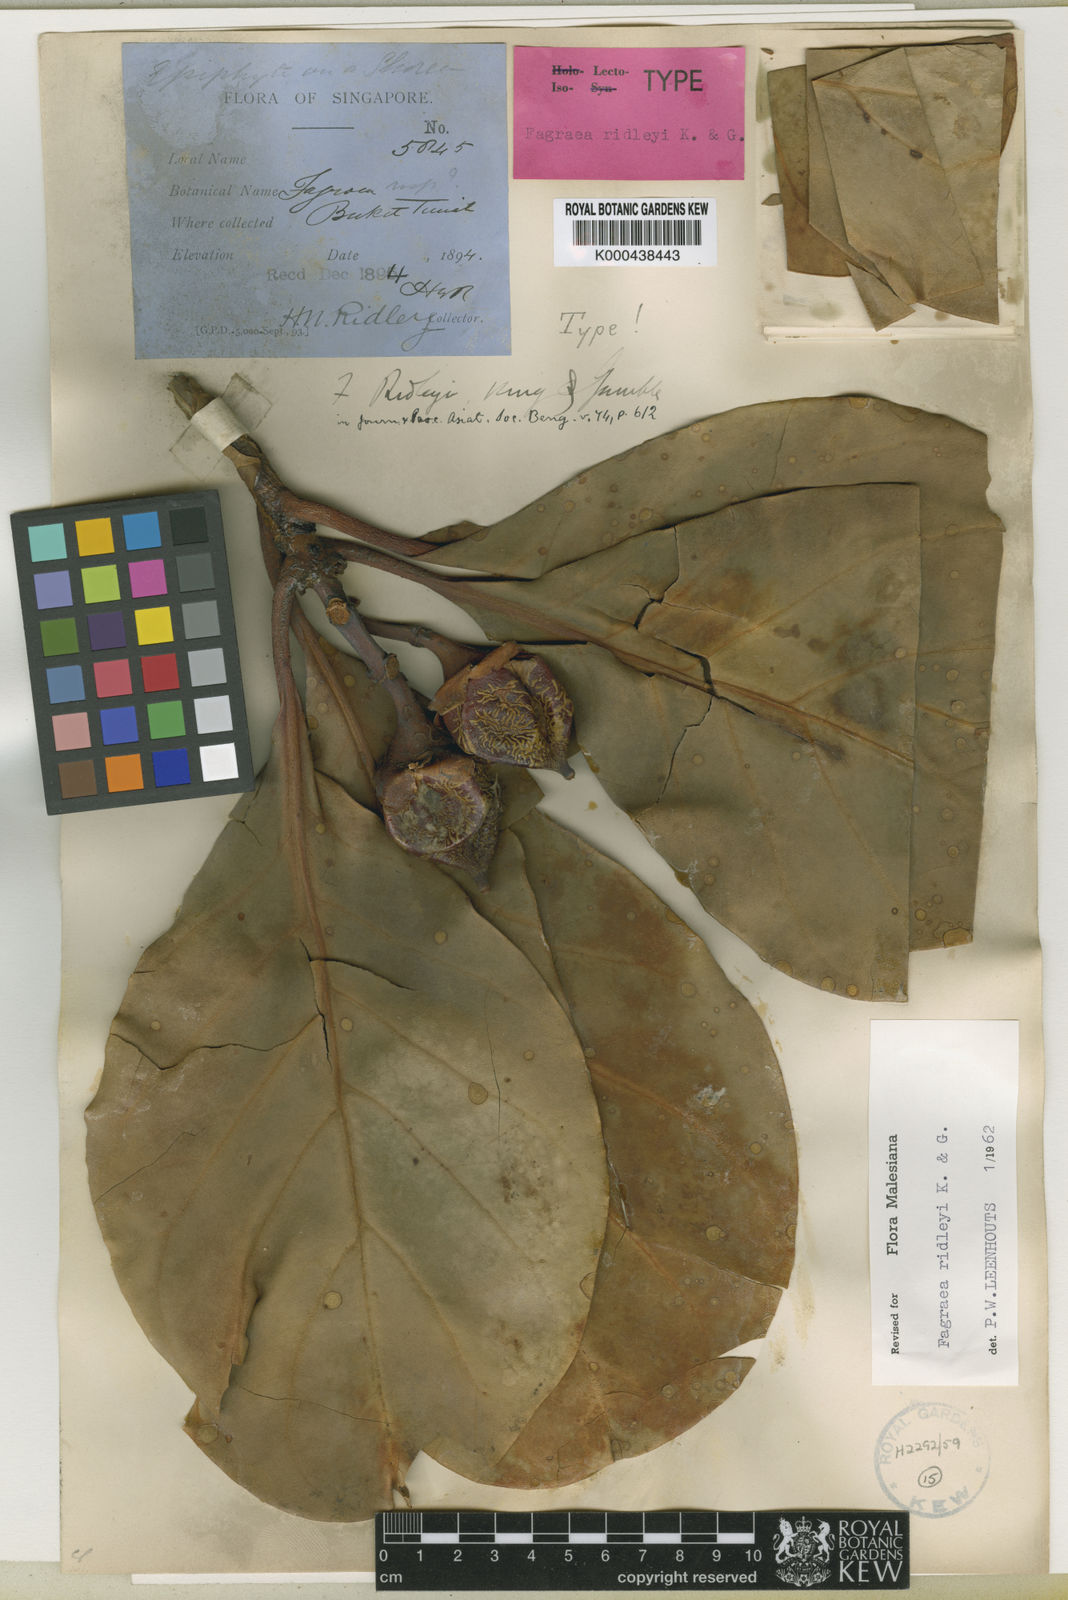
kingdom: Plantae
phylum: Tracheophyta
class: Magnoliopsida
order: Gentianales
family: Gentianaceae
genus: Fagraea
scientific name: Fagraea ridleyi
